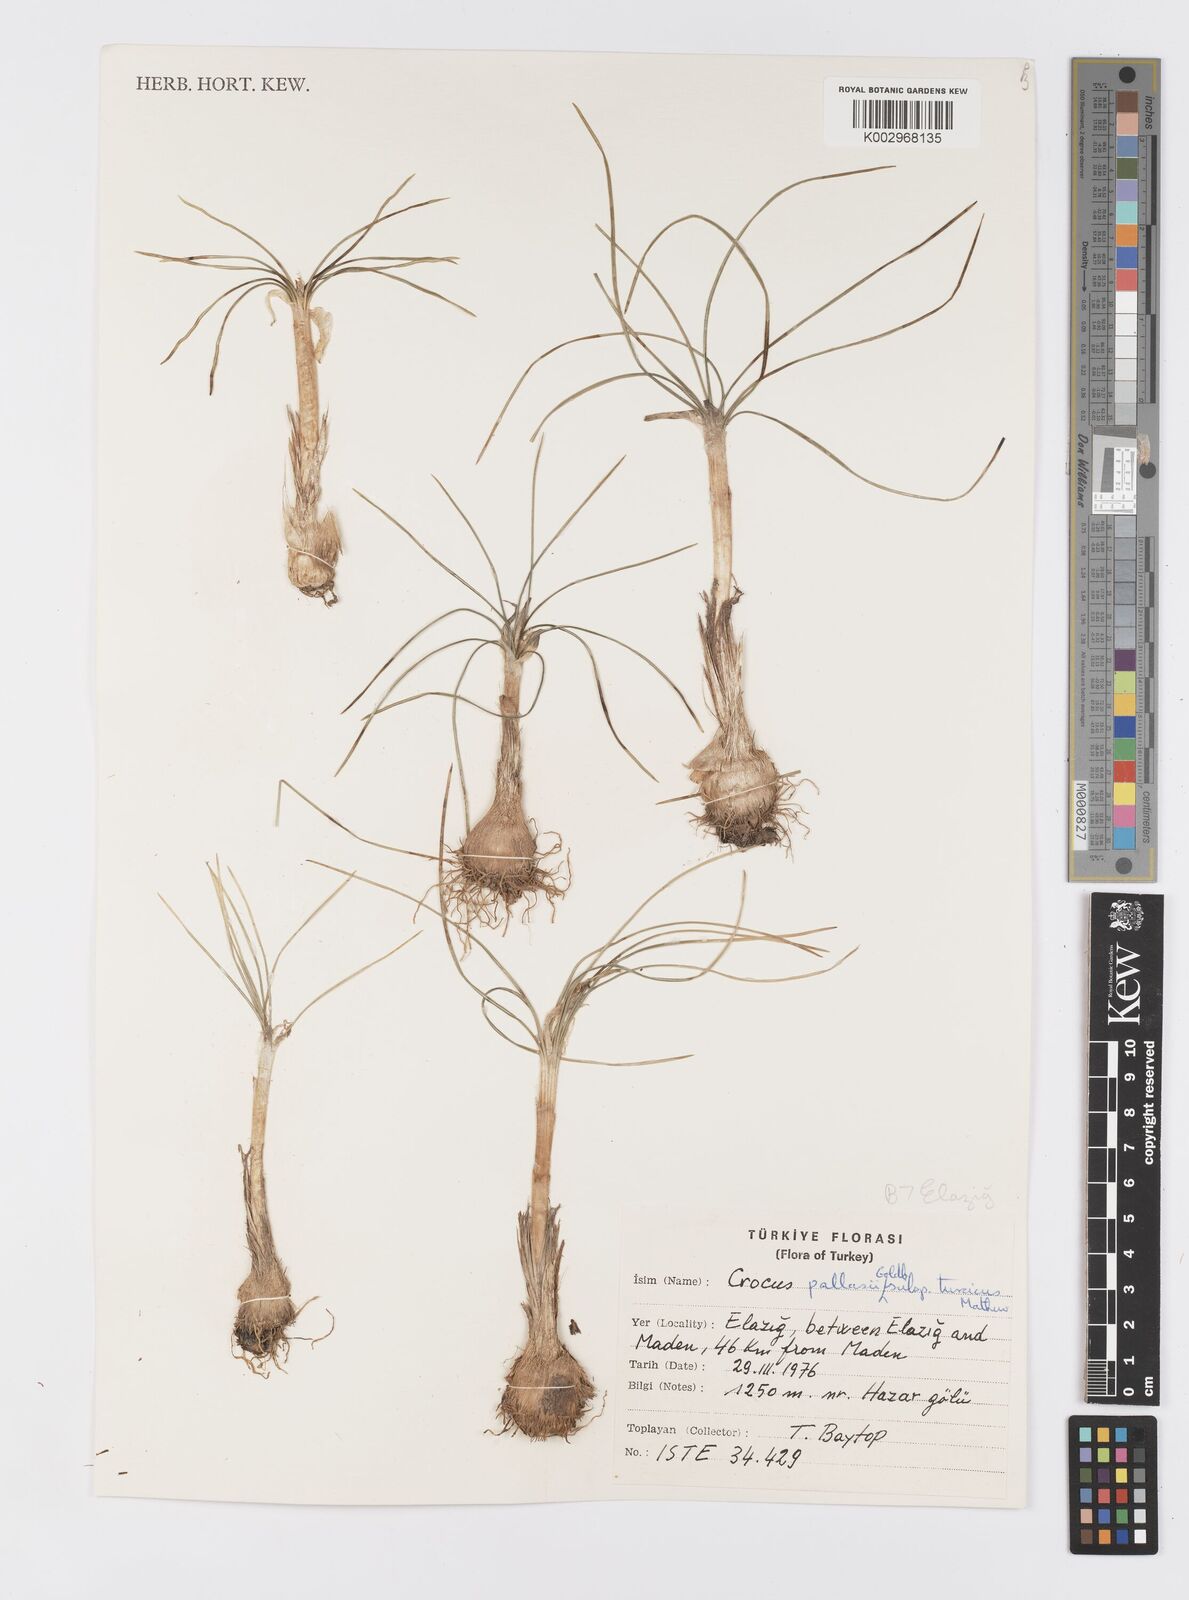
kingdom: Plantae
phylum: Tracheophyta
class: Liliopsida
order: Asparagales
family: Iridaceae
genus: Crocus
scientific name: Crocus turcicus
